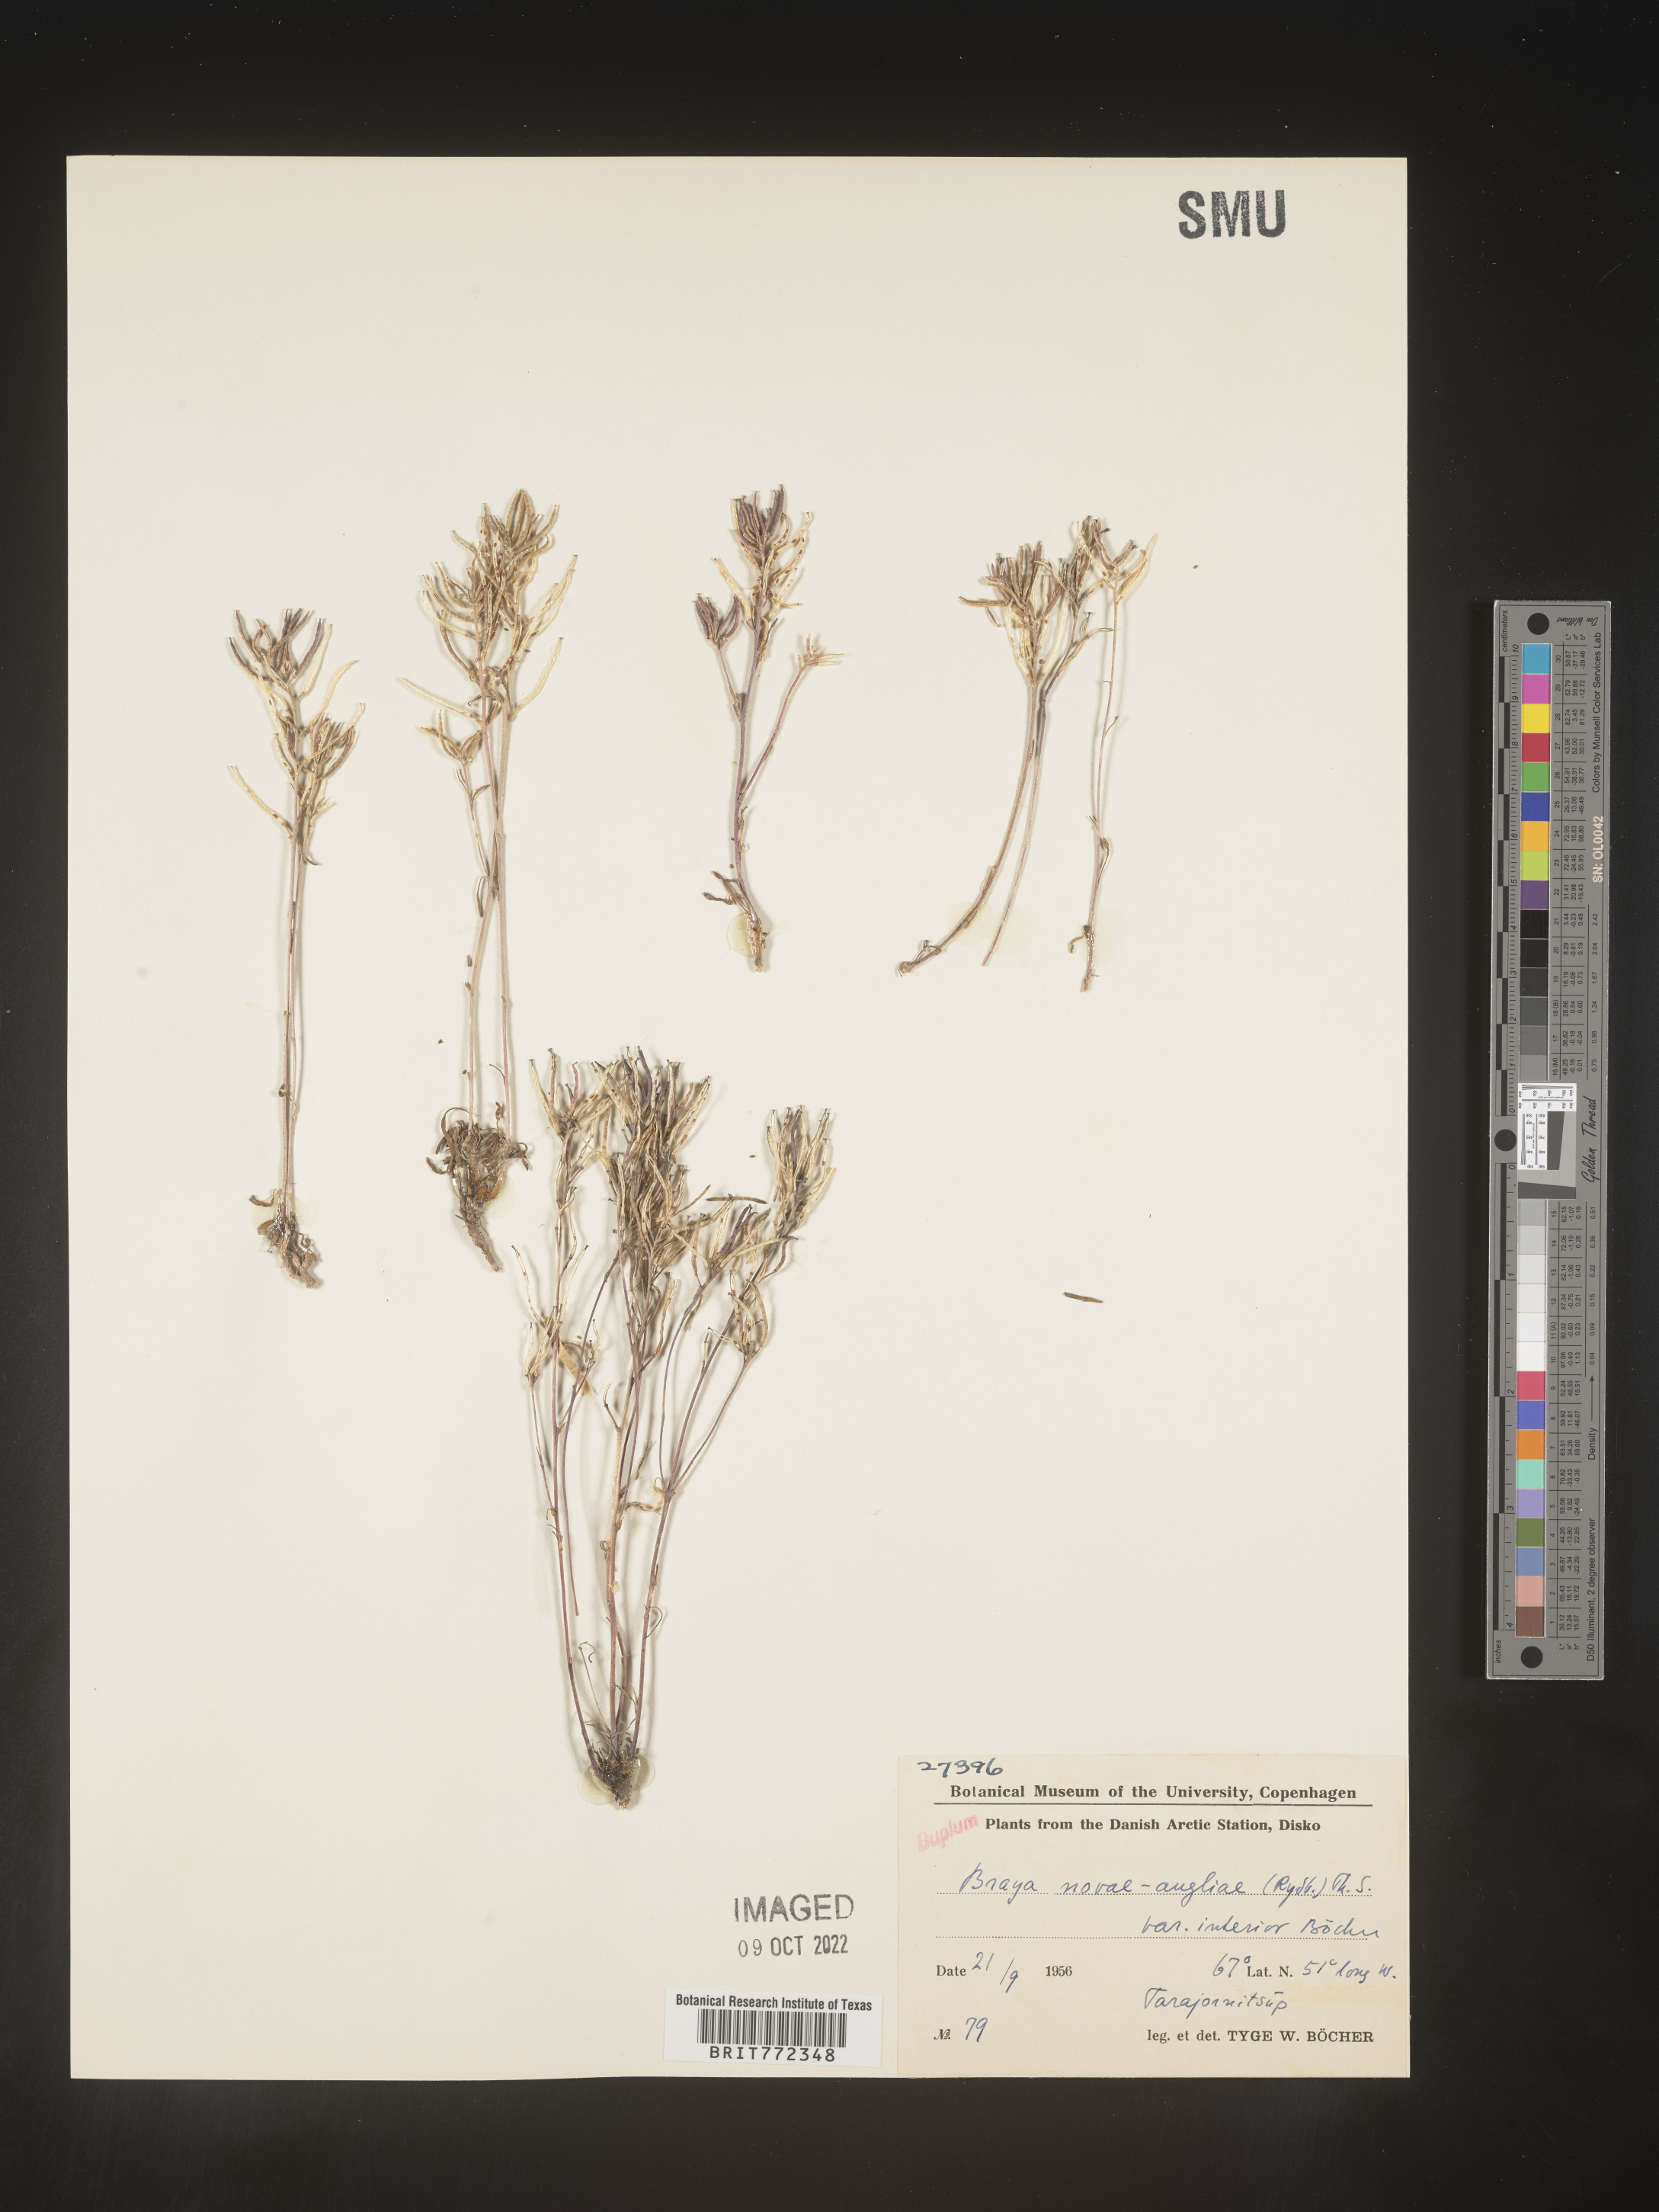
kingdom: Plantae
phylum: Tracheophyta
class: Magnoliopsida
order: Brassicales
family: Brassicaceae
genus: Braya
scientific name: Braya
